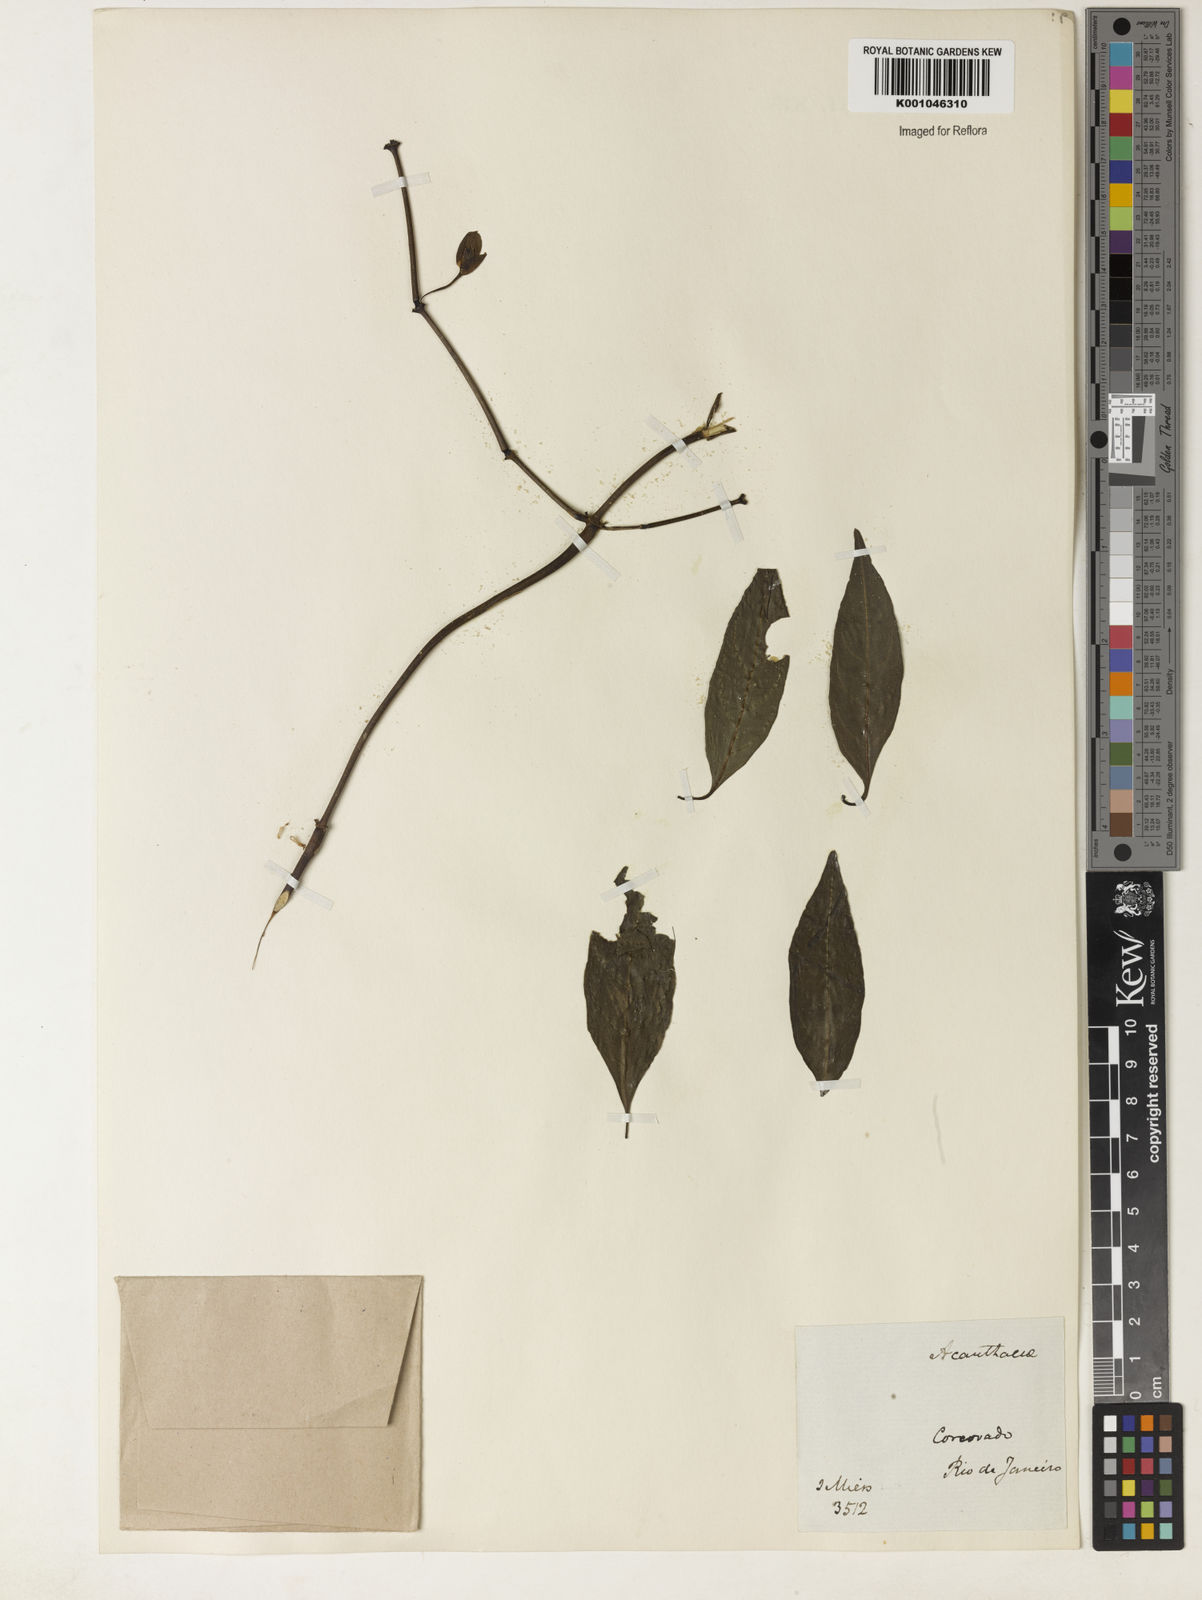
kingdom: Plantae
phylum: Tracheophyta
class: Magnoliopsida
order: Lamiales
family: Acanthaceae
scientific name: Acanthaceae
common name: Acanthaceae
